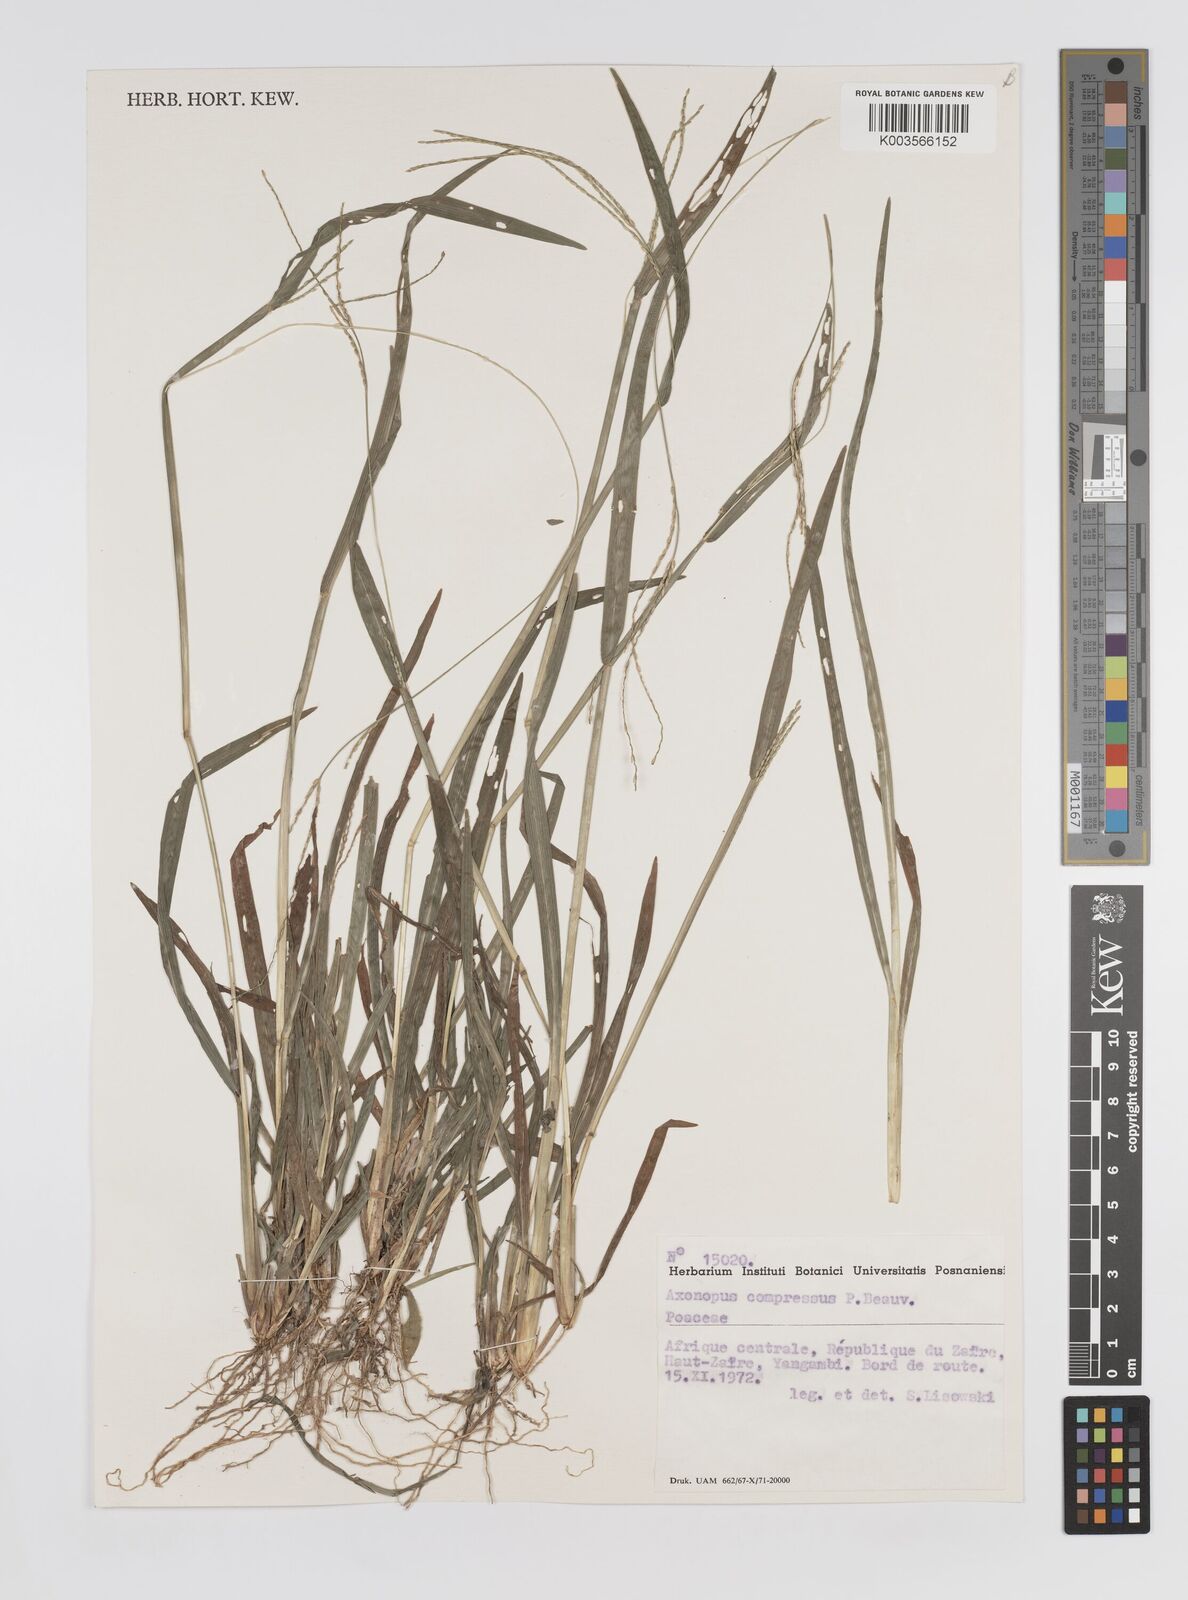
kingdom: Plantae
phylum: Tracheophyta
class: Liliopsida
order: Poales
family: Poaceae
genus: Axonopus
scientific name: Axonopus compressus
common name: American carpet grass
